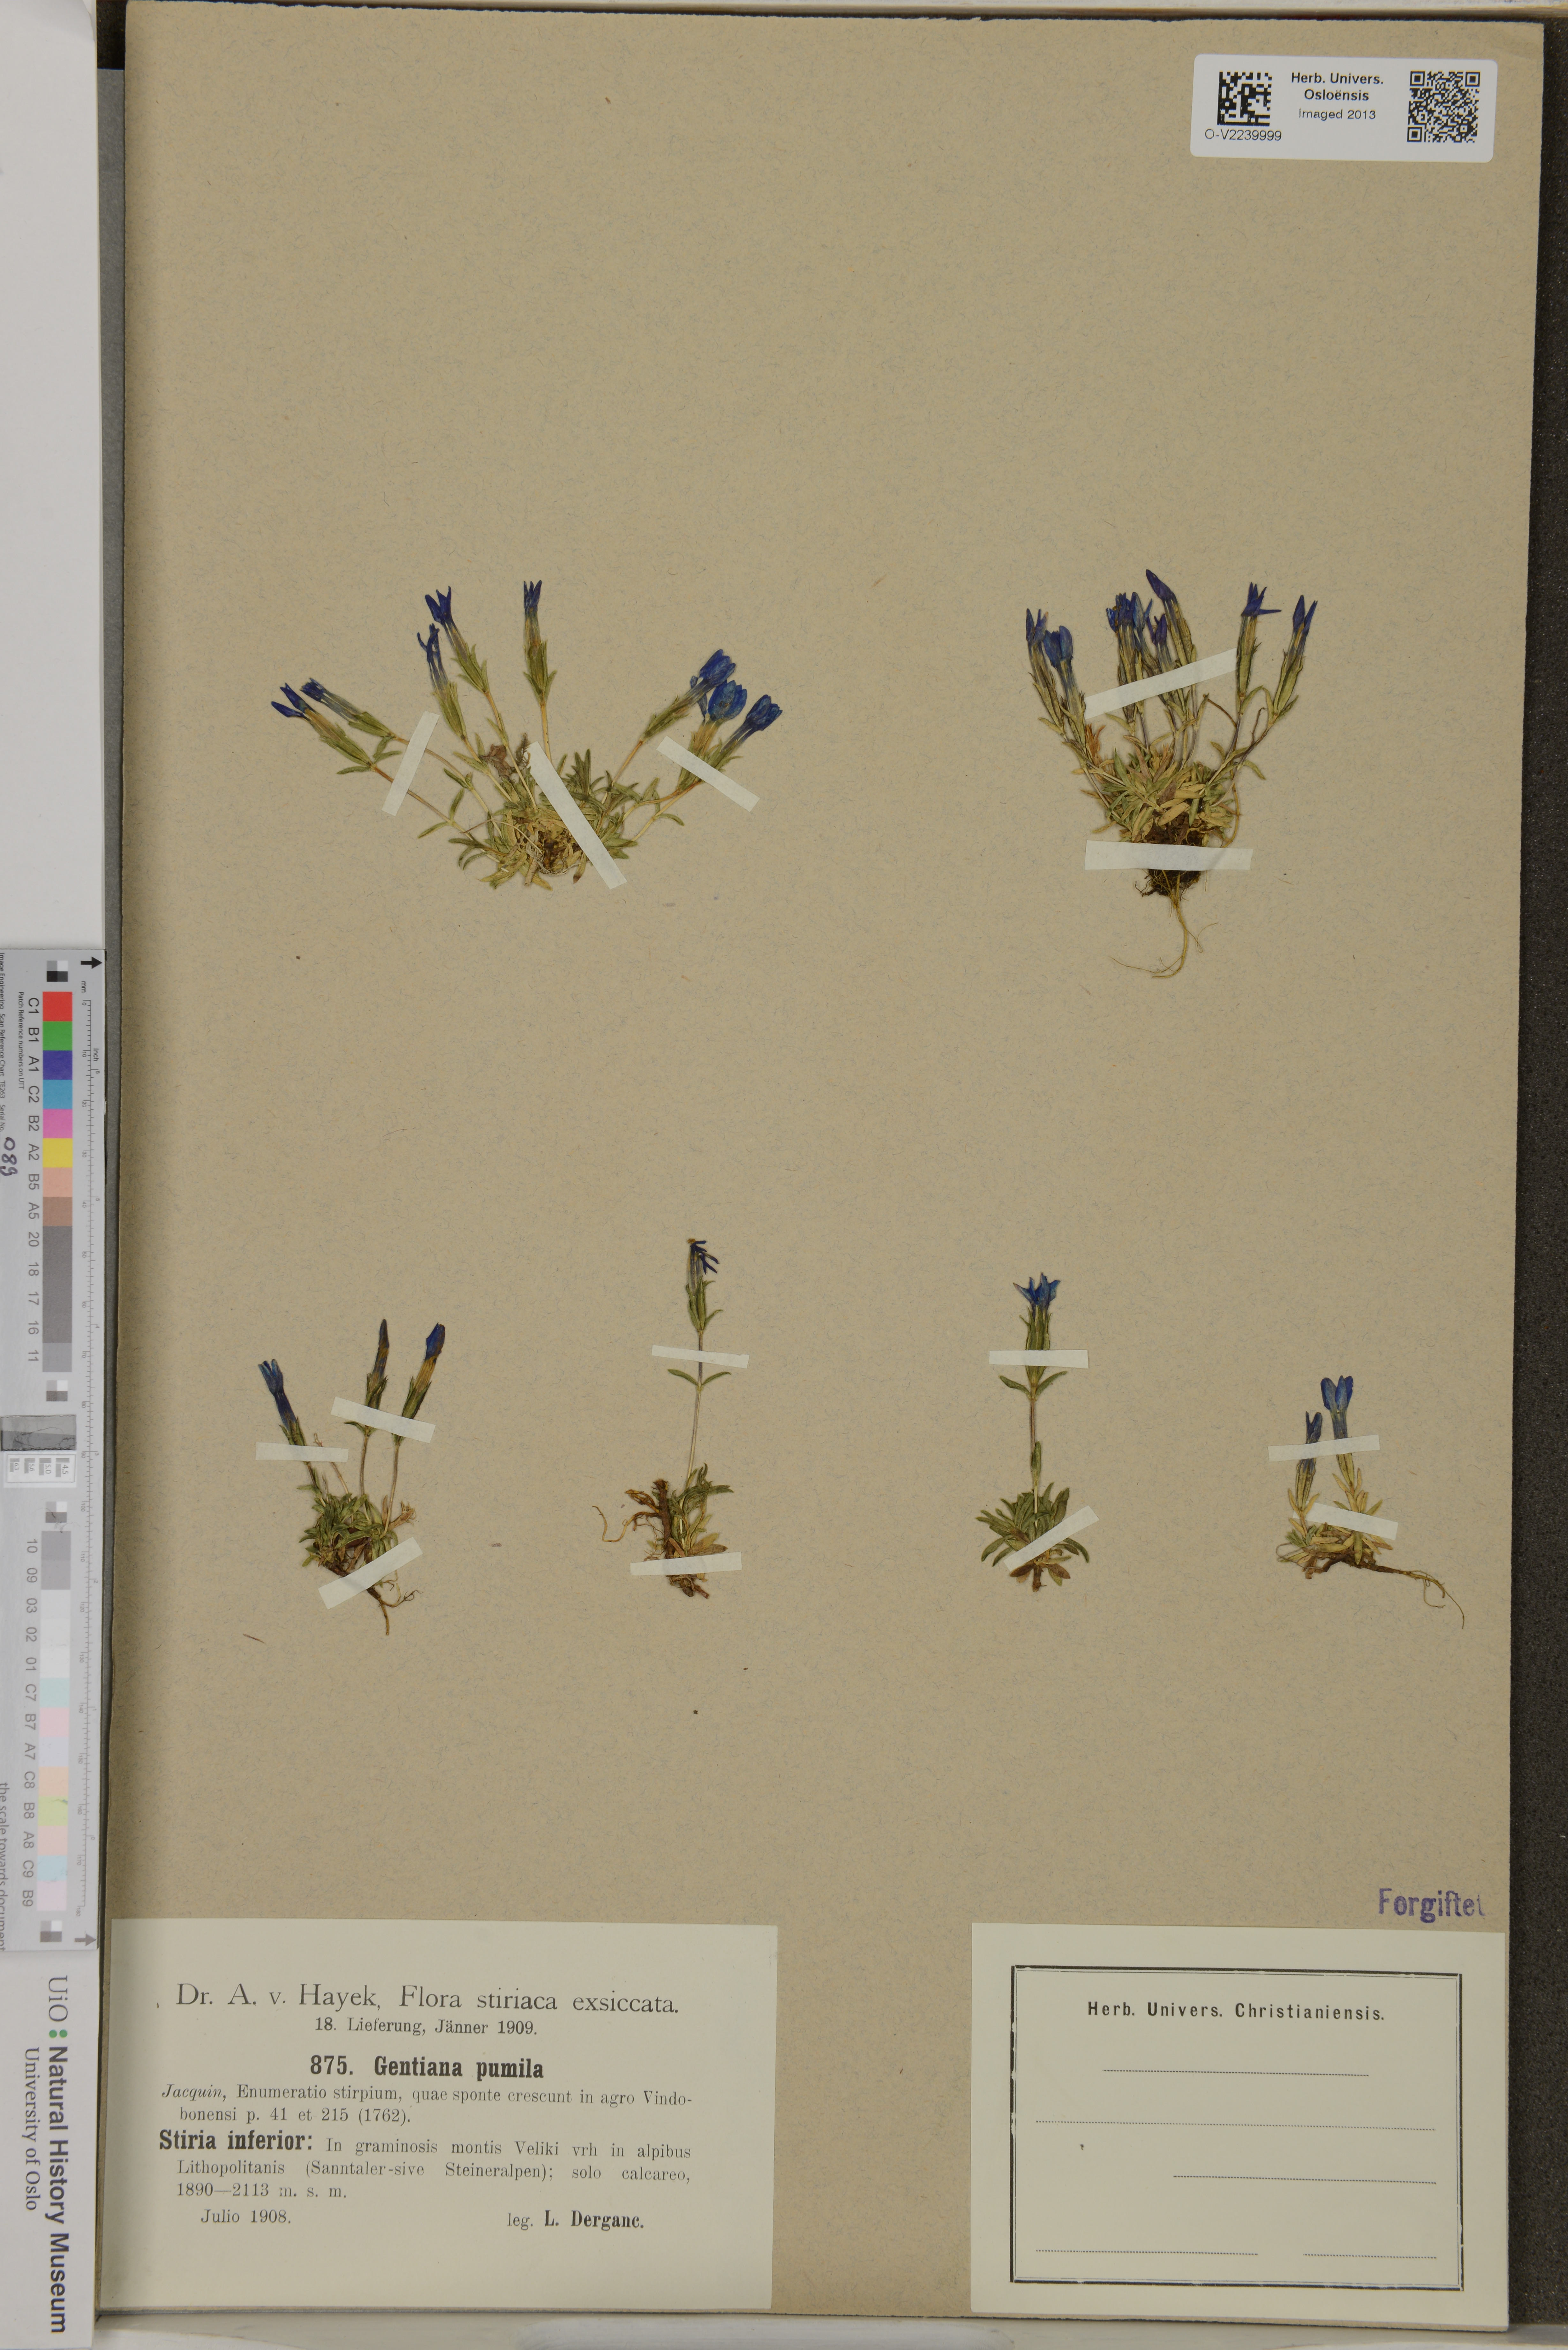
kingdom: Plantae
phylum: Tracheophyta
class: Magnoliopsida
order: Gentianales
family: Gentianaceae
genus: Gentiana
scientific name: Gentiana pumila
